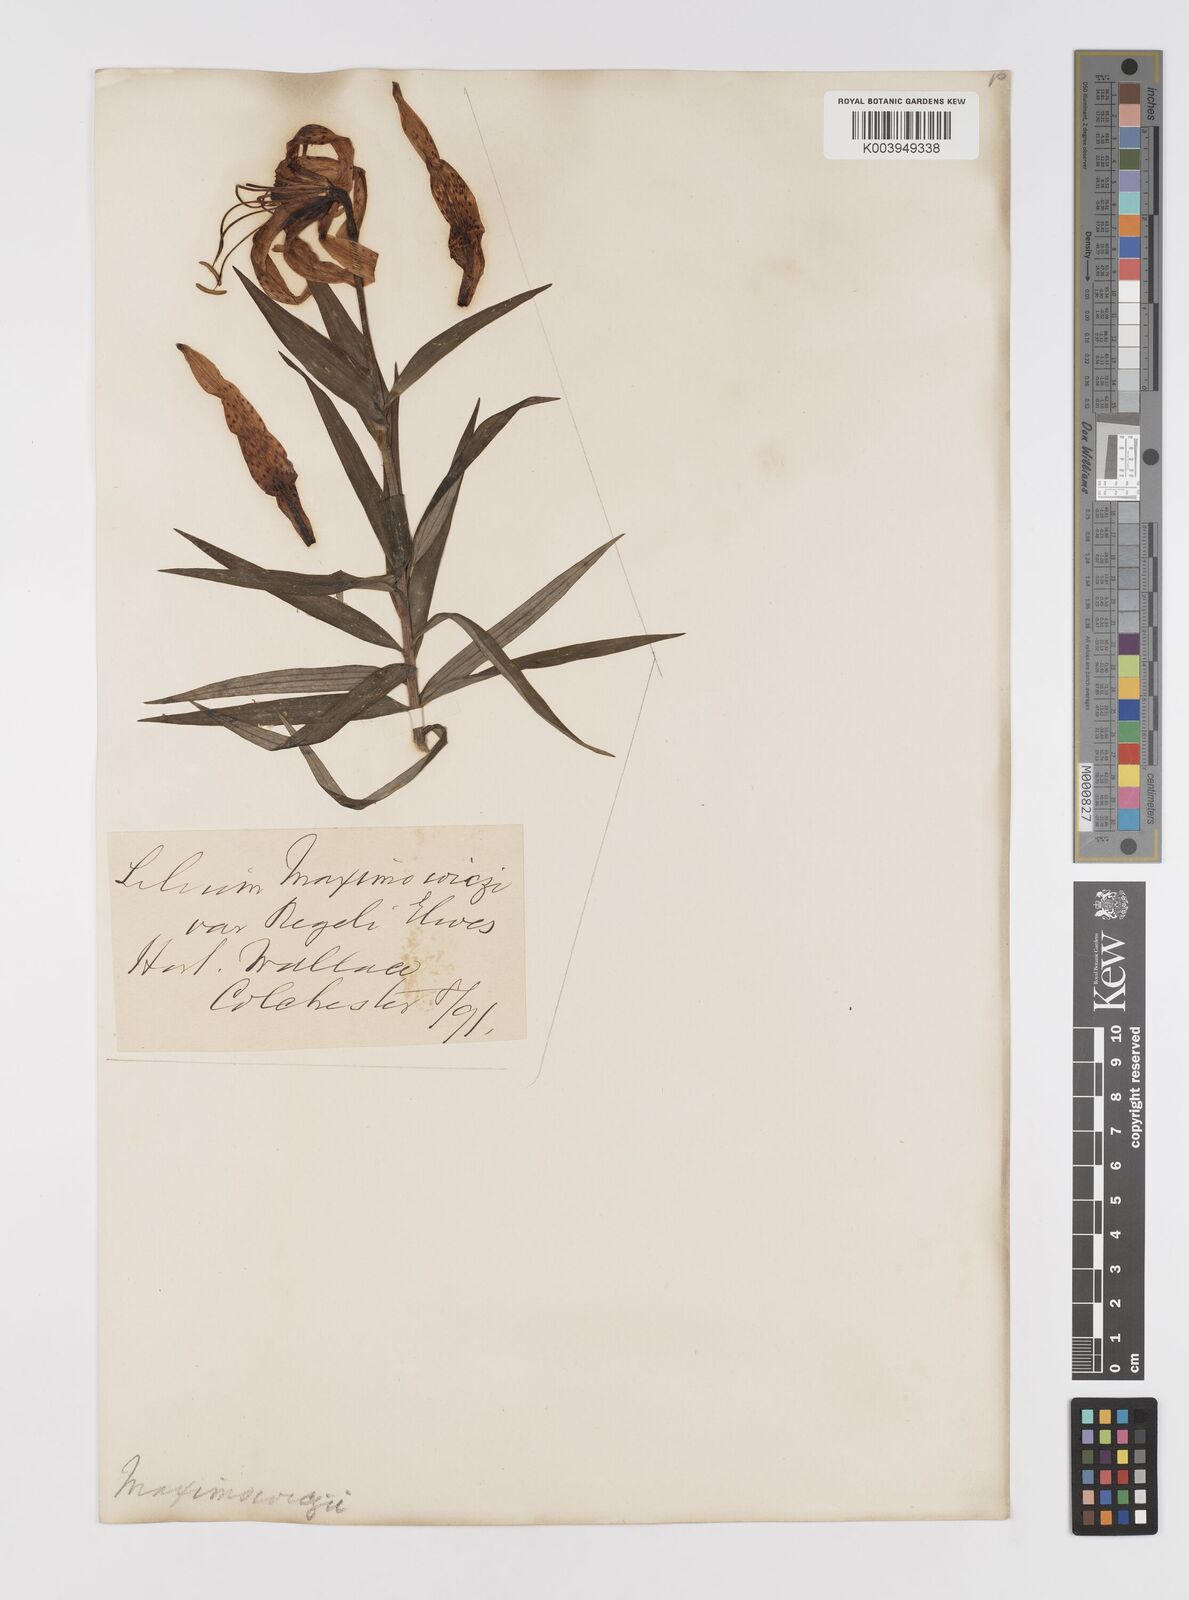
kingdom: Plantae
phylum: Tracheophyta
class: Liliopsida
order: Liliales
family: Liliaceae
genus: Lilium
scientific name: Lilium leichtlinii
